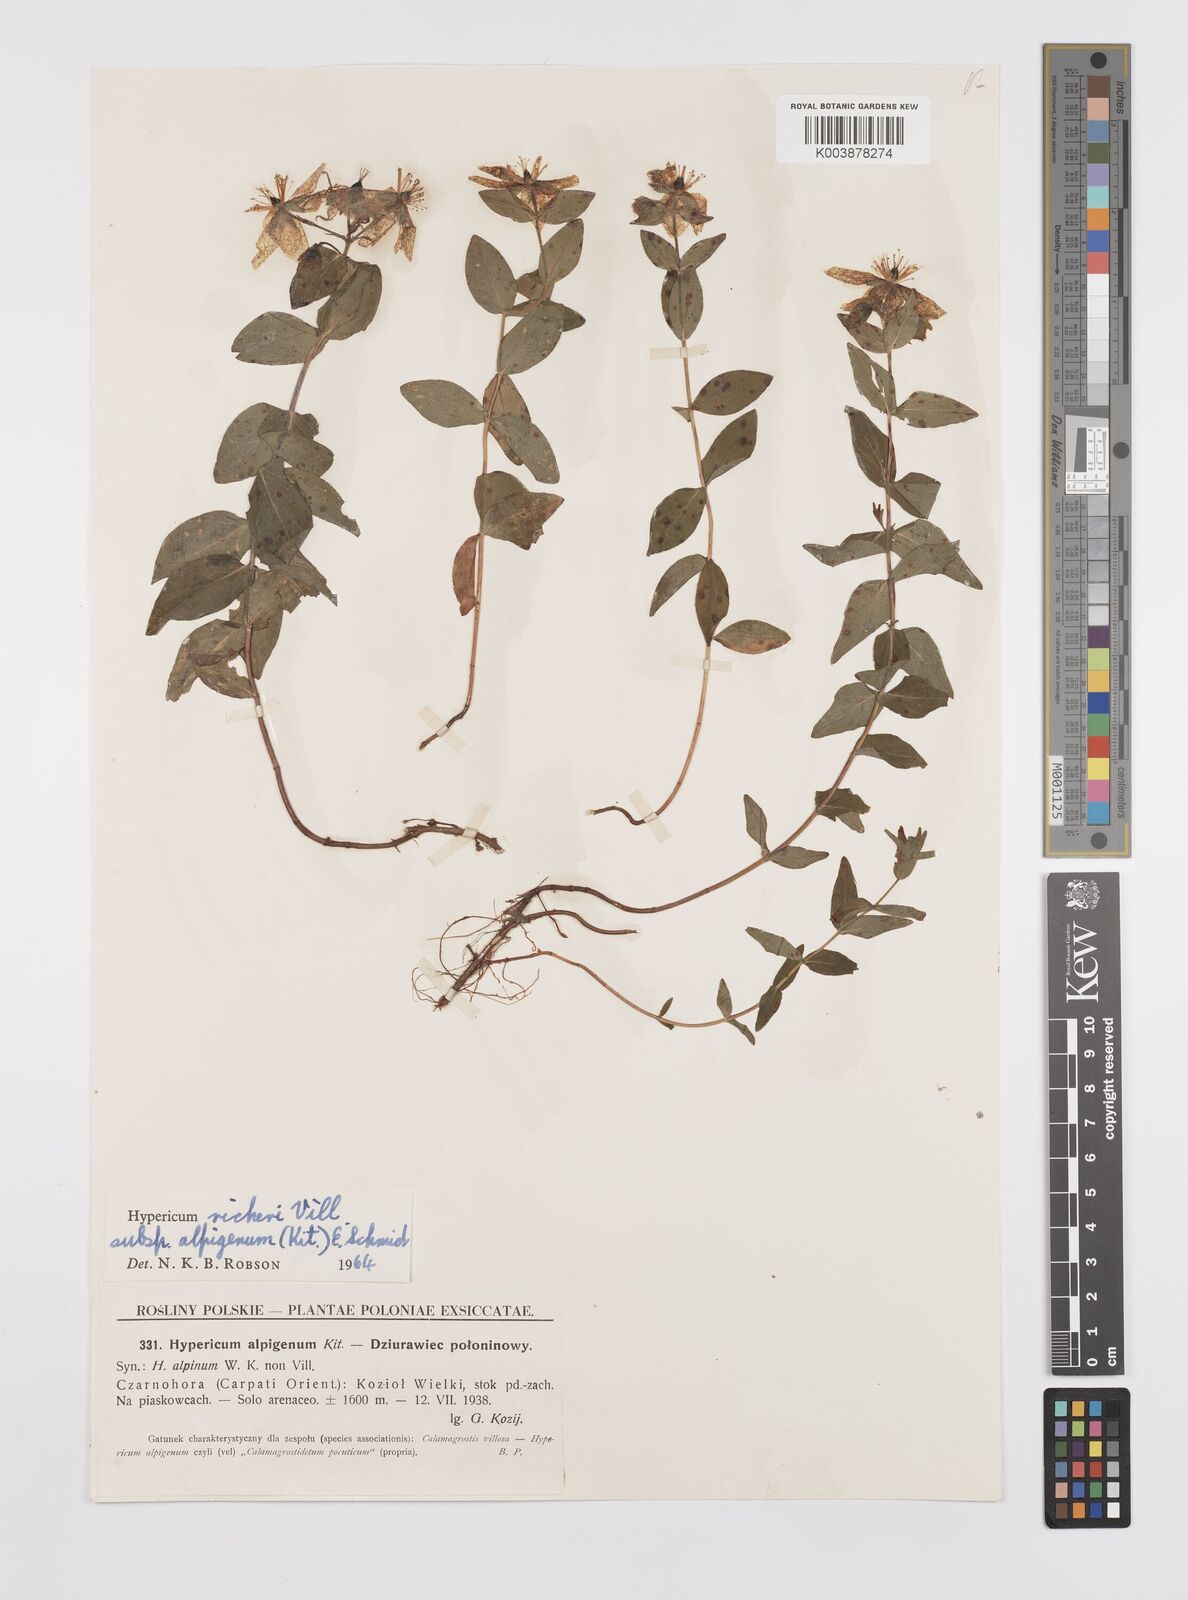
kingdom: Plantae
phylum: Tracheophyta
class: Magnoliopsida
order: Malpighiales
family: Hypericaceae
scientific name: Hypericaceae
